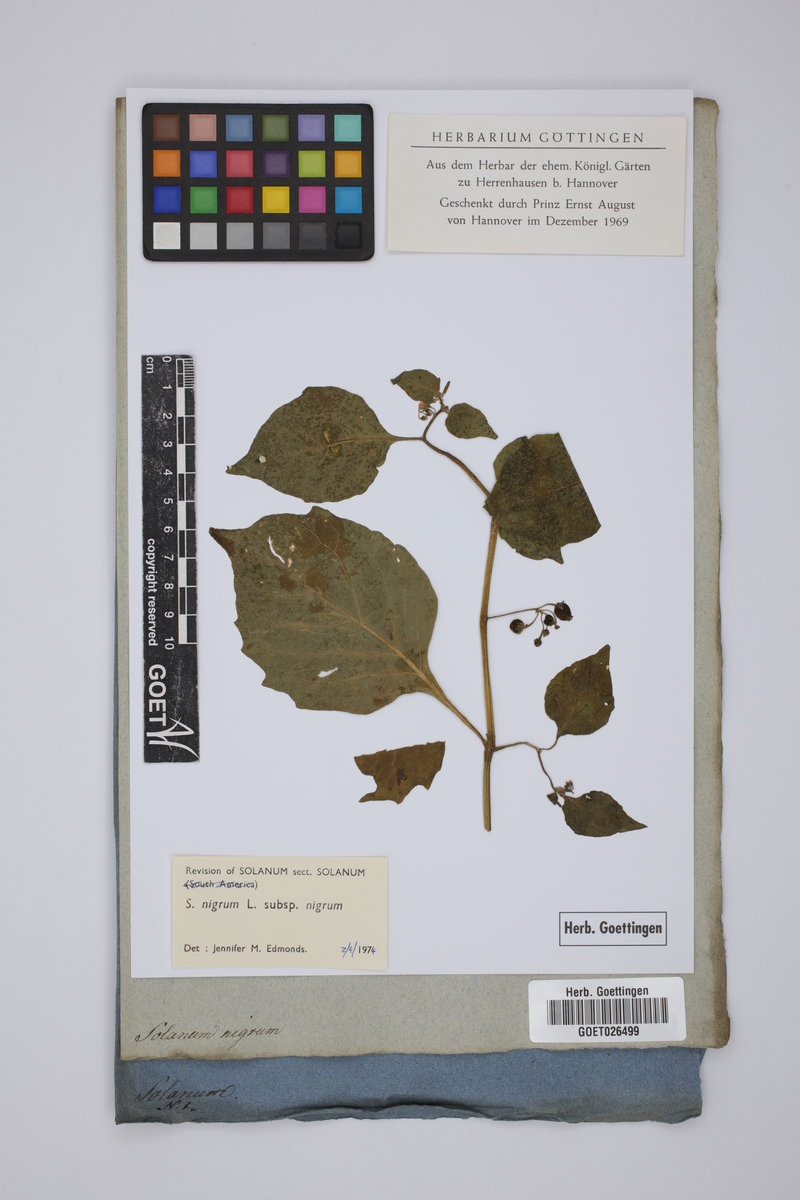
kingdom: Plantae
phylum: Tracheophyta
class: Magnoliopsida
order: Solanales
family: Solanaceae
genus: Solanum
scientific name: Solanum americanum
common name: American black nightshade
